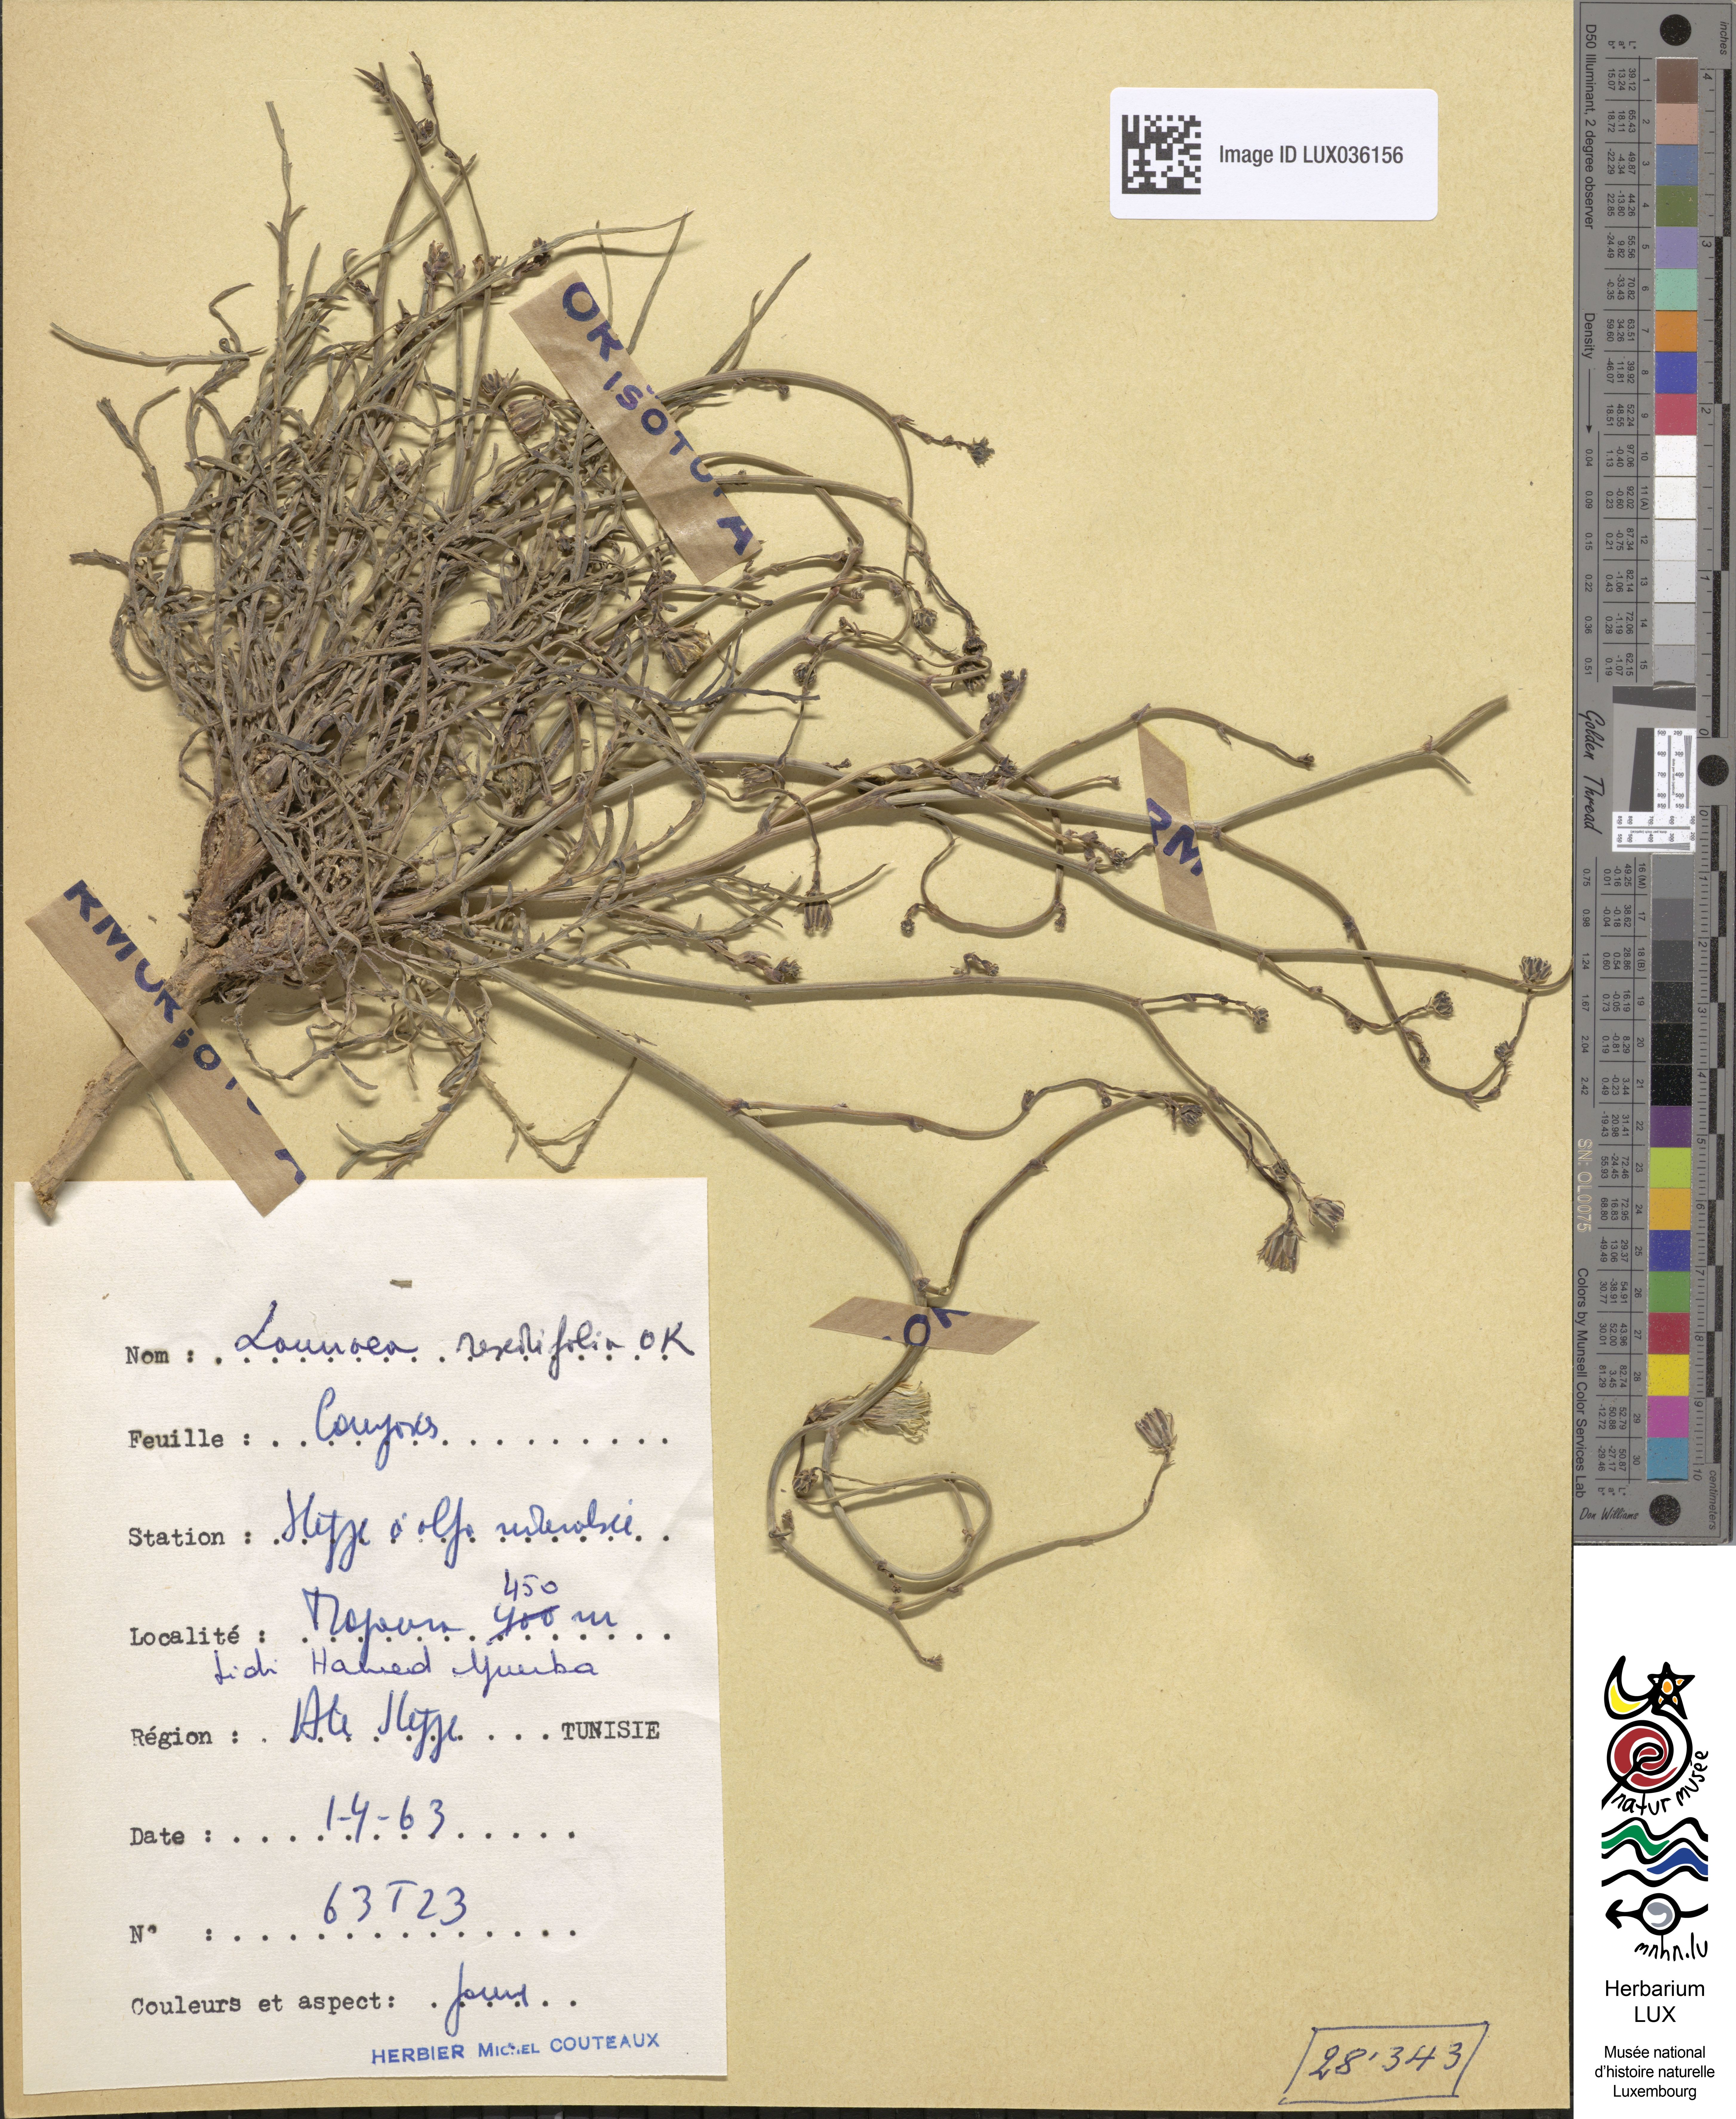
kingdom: Plantae
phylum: Tracheophyta
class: Magnoliopsida
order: Asterales
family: Asteraceae
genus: Launaea
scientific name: Launaea fragilis
